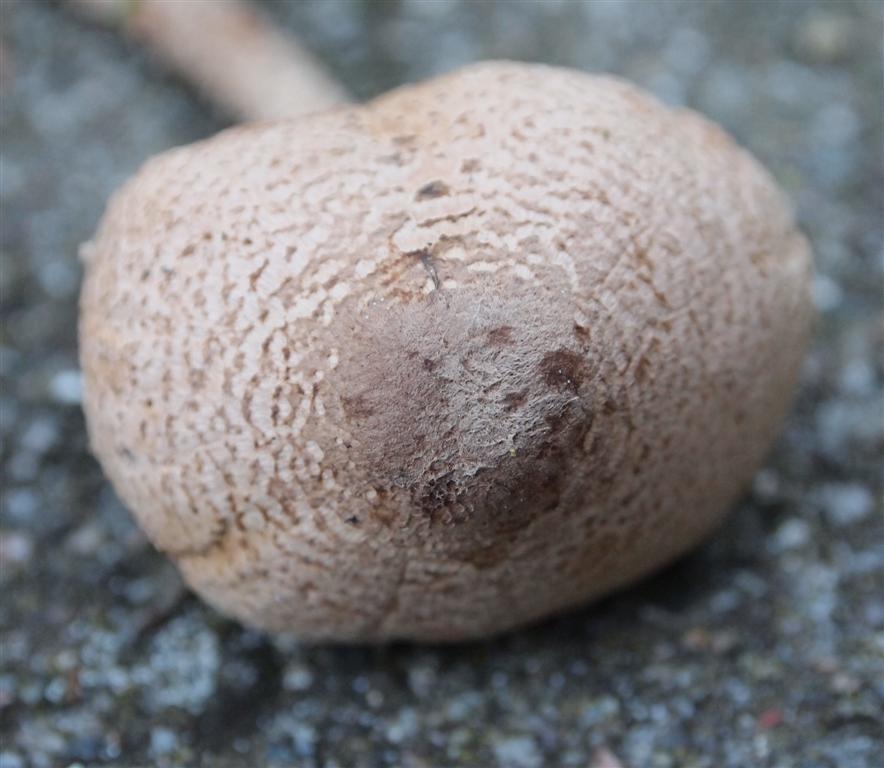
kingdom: Fungi
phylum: Basidiomycota
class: Agaricomycetes
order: Agaricales
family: Agaricaceae
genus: Lepiota
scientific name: Lepiota magnispora
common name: gulfnugget parasolhat
